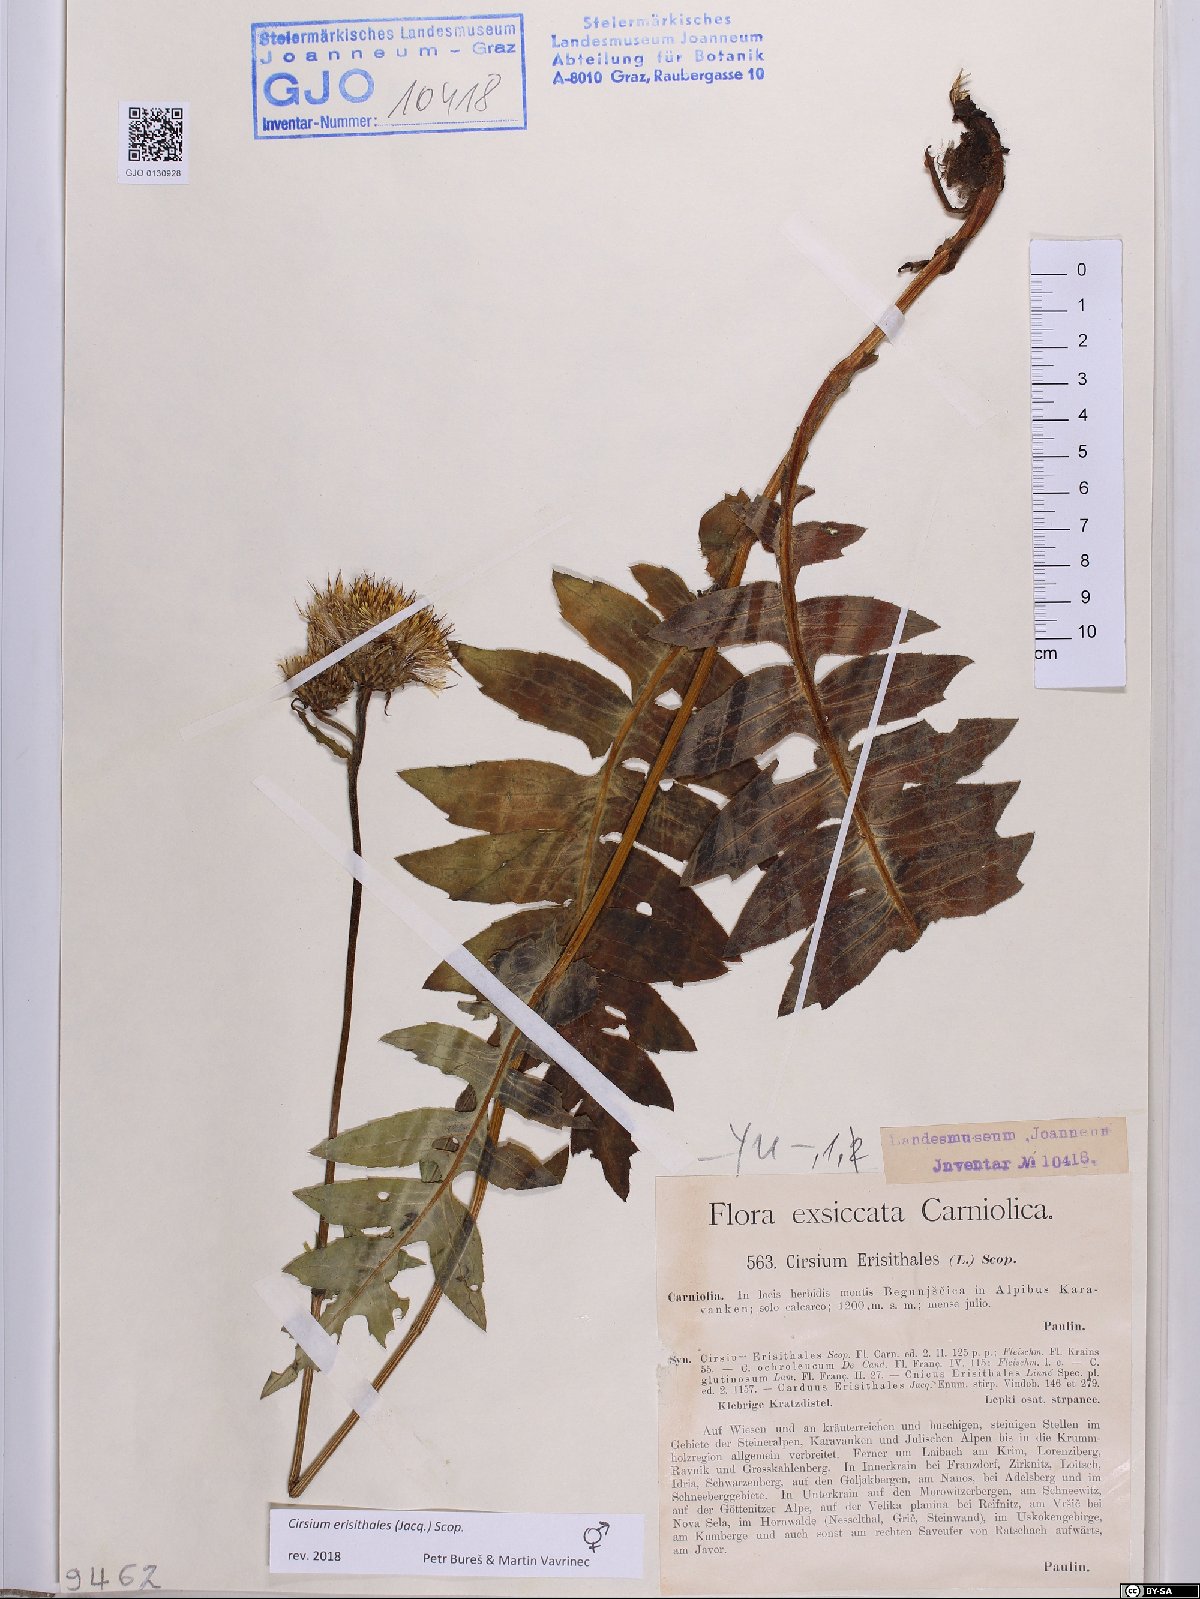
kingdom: Plantae
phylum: Tracheophyta
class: Magnoliopsida
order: Asterales
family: Asteraceae
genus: Cirsium
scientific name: Cirsium erisithales
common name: Yellow thistle
